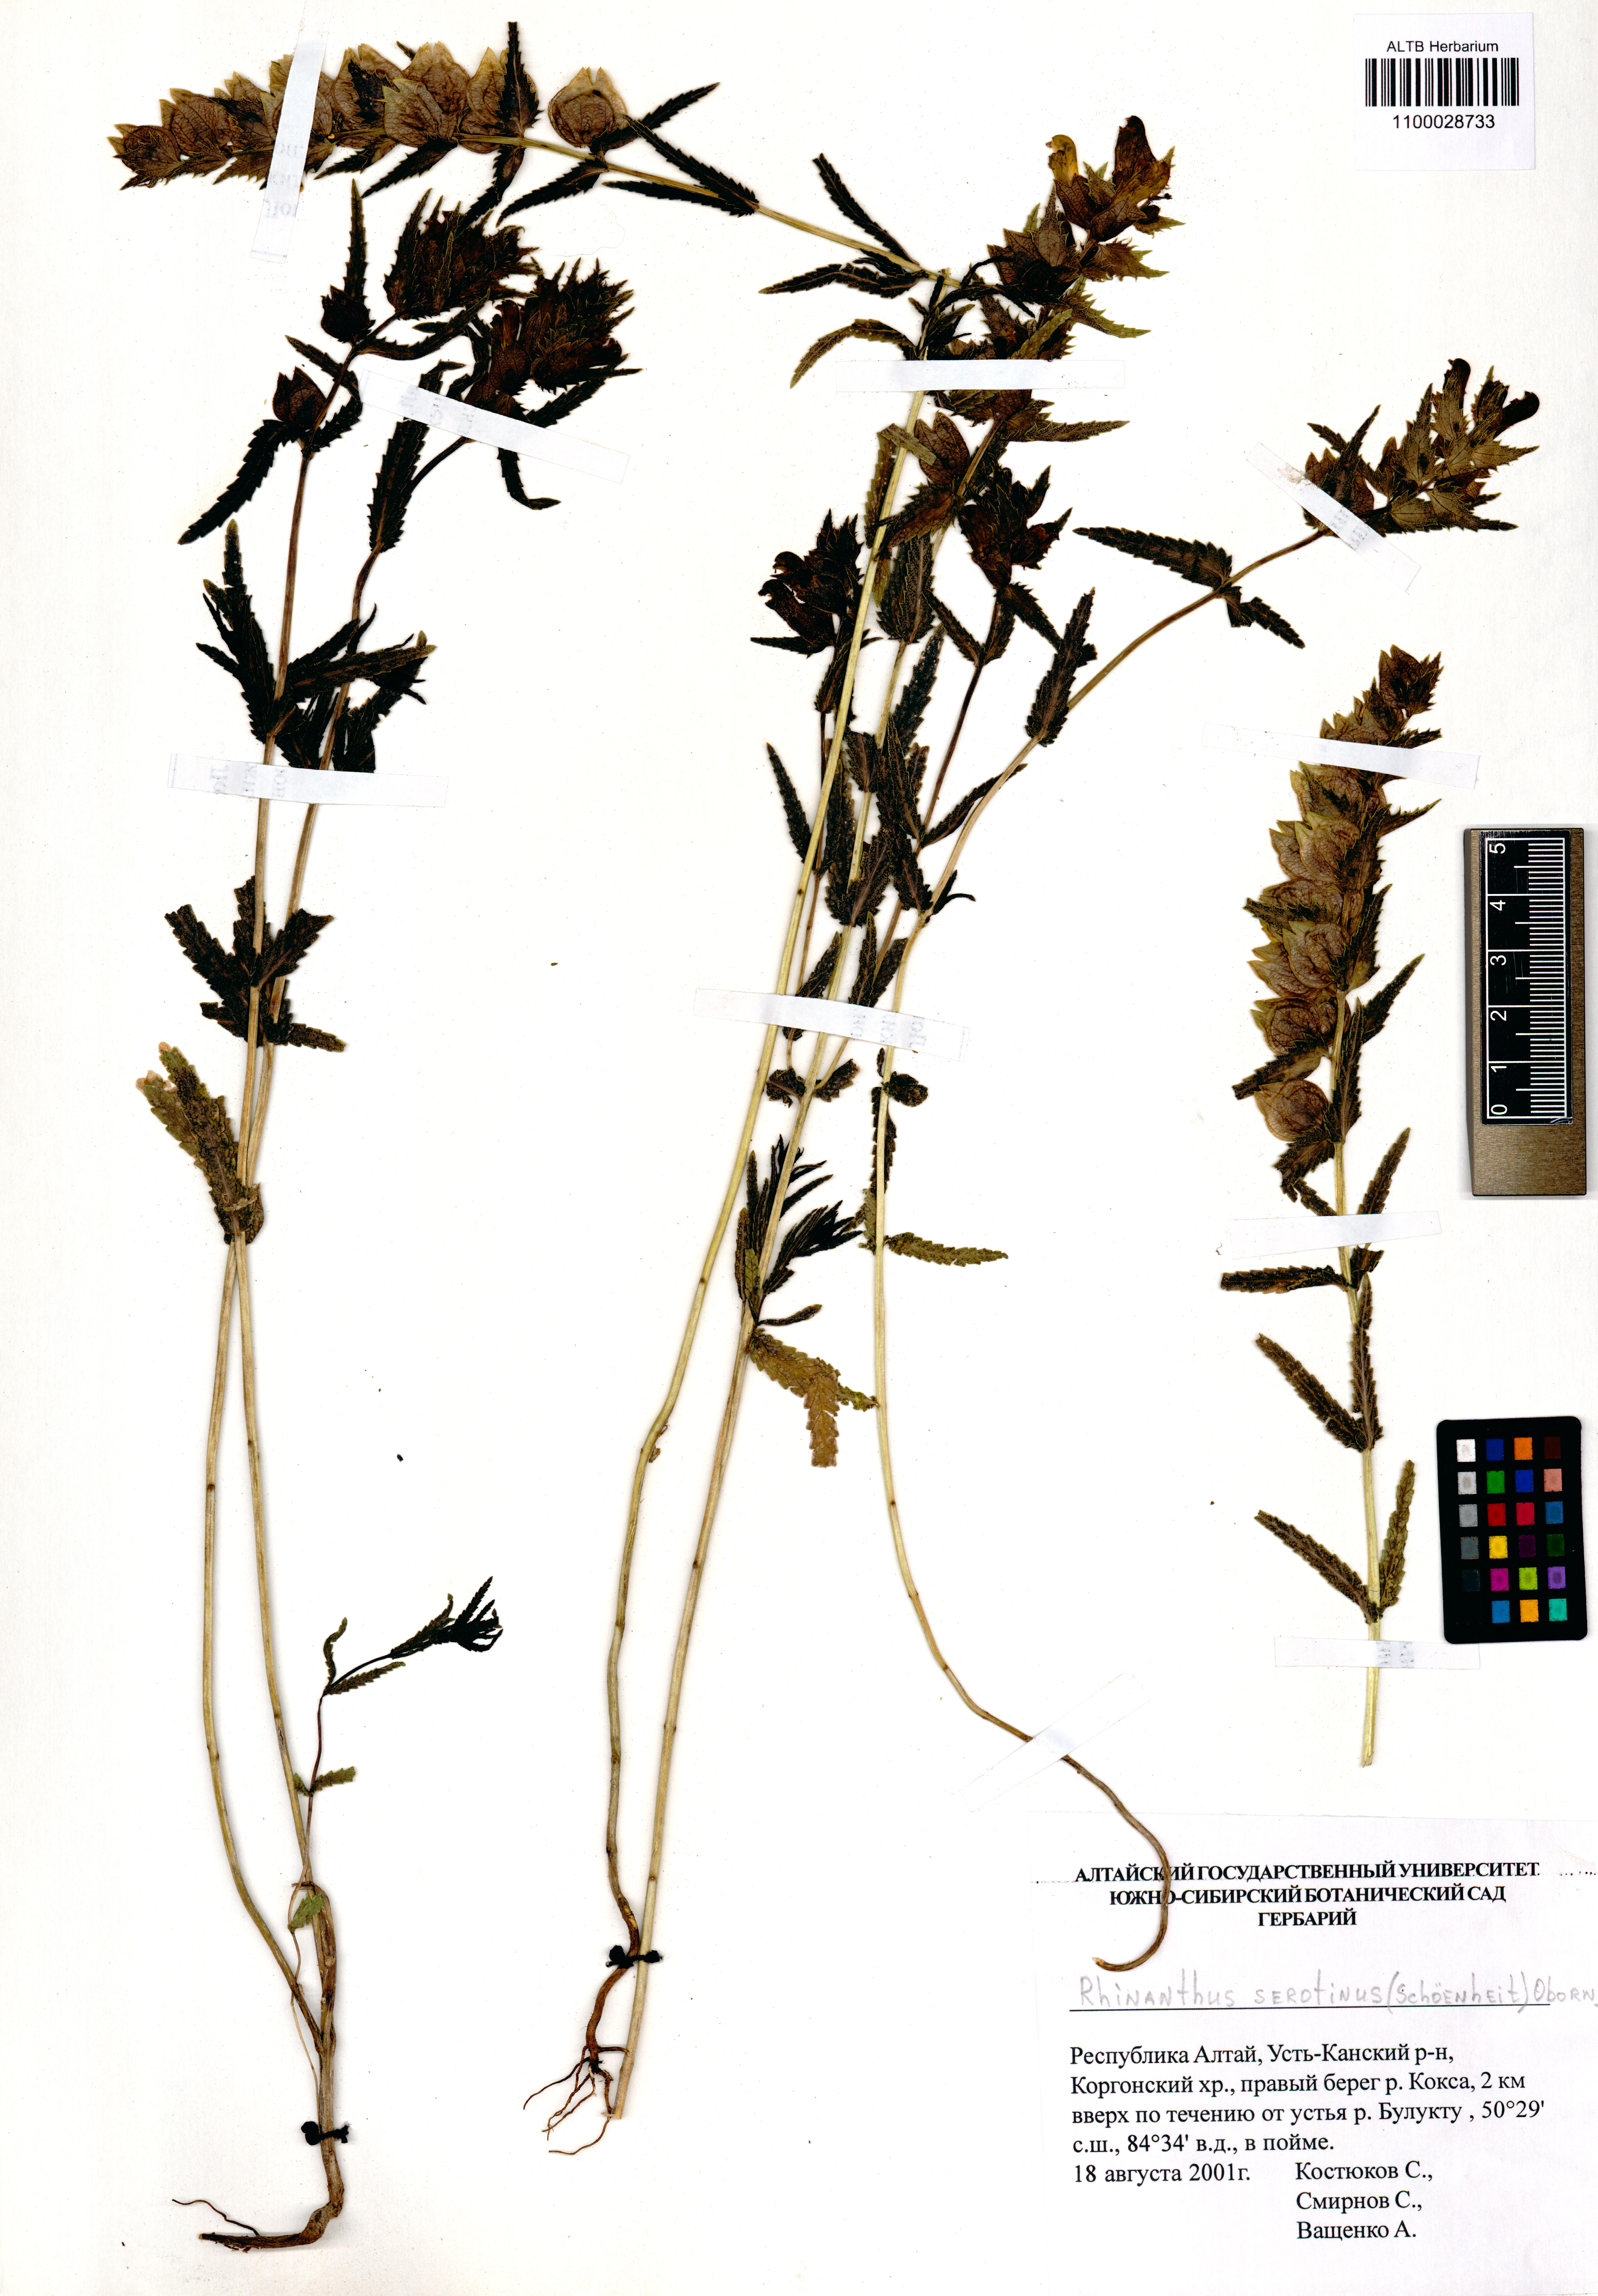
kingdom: Plantae
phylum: Tracheophyta
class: Magnoliopsida
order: Lamiales
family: Orobanchaceae
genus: Rhinanthus
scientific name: Rhinanthus
